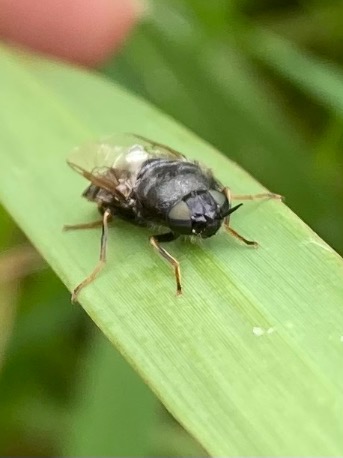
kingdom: Animalia
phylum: Arthropoda
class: Insecta
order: Diptera
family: Stratiomyidae
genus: Odontomyia
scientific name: Odontomyia tigrina
